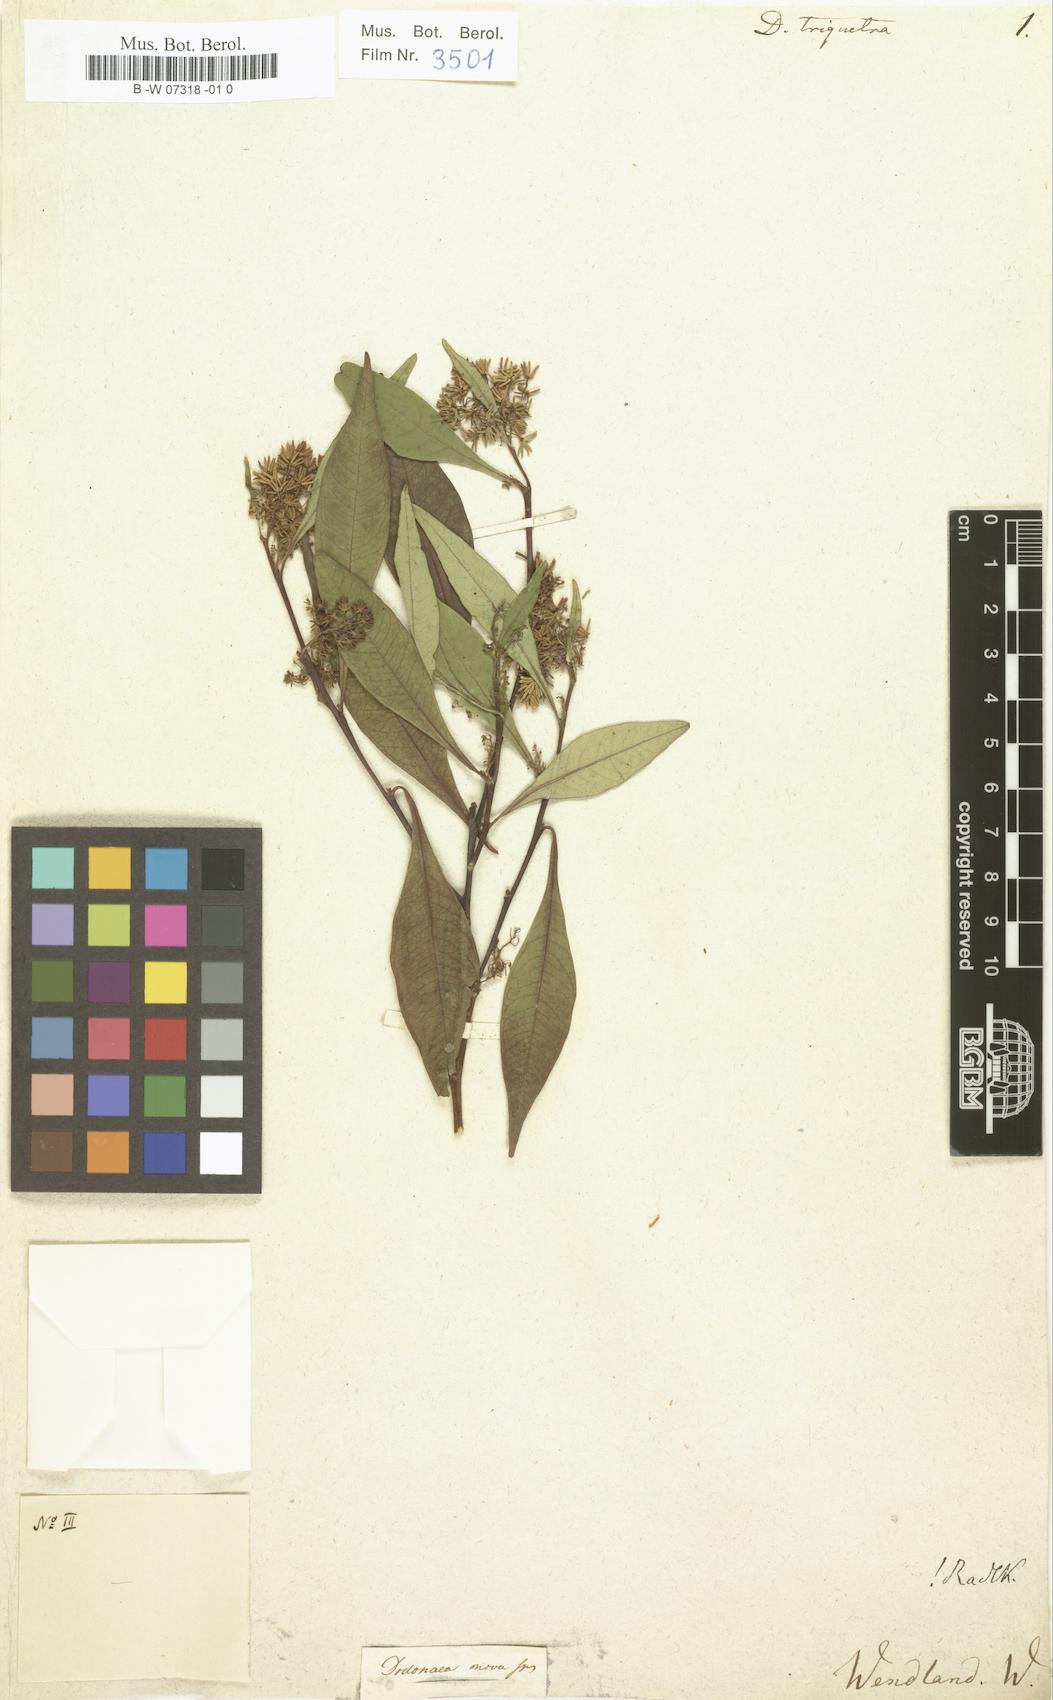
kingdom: Plantae
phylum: Tracheophyta
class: Magnoliopsida
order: Sapindales
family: Sapindaceae
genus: Dodonaea
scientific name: Dodonaea triquetra
